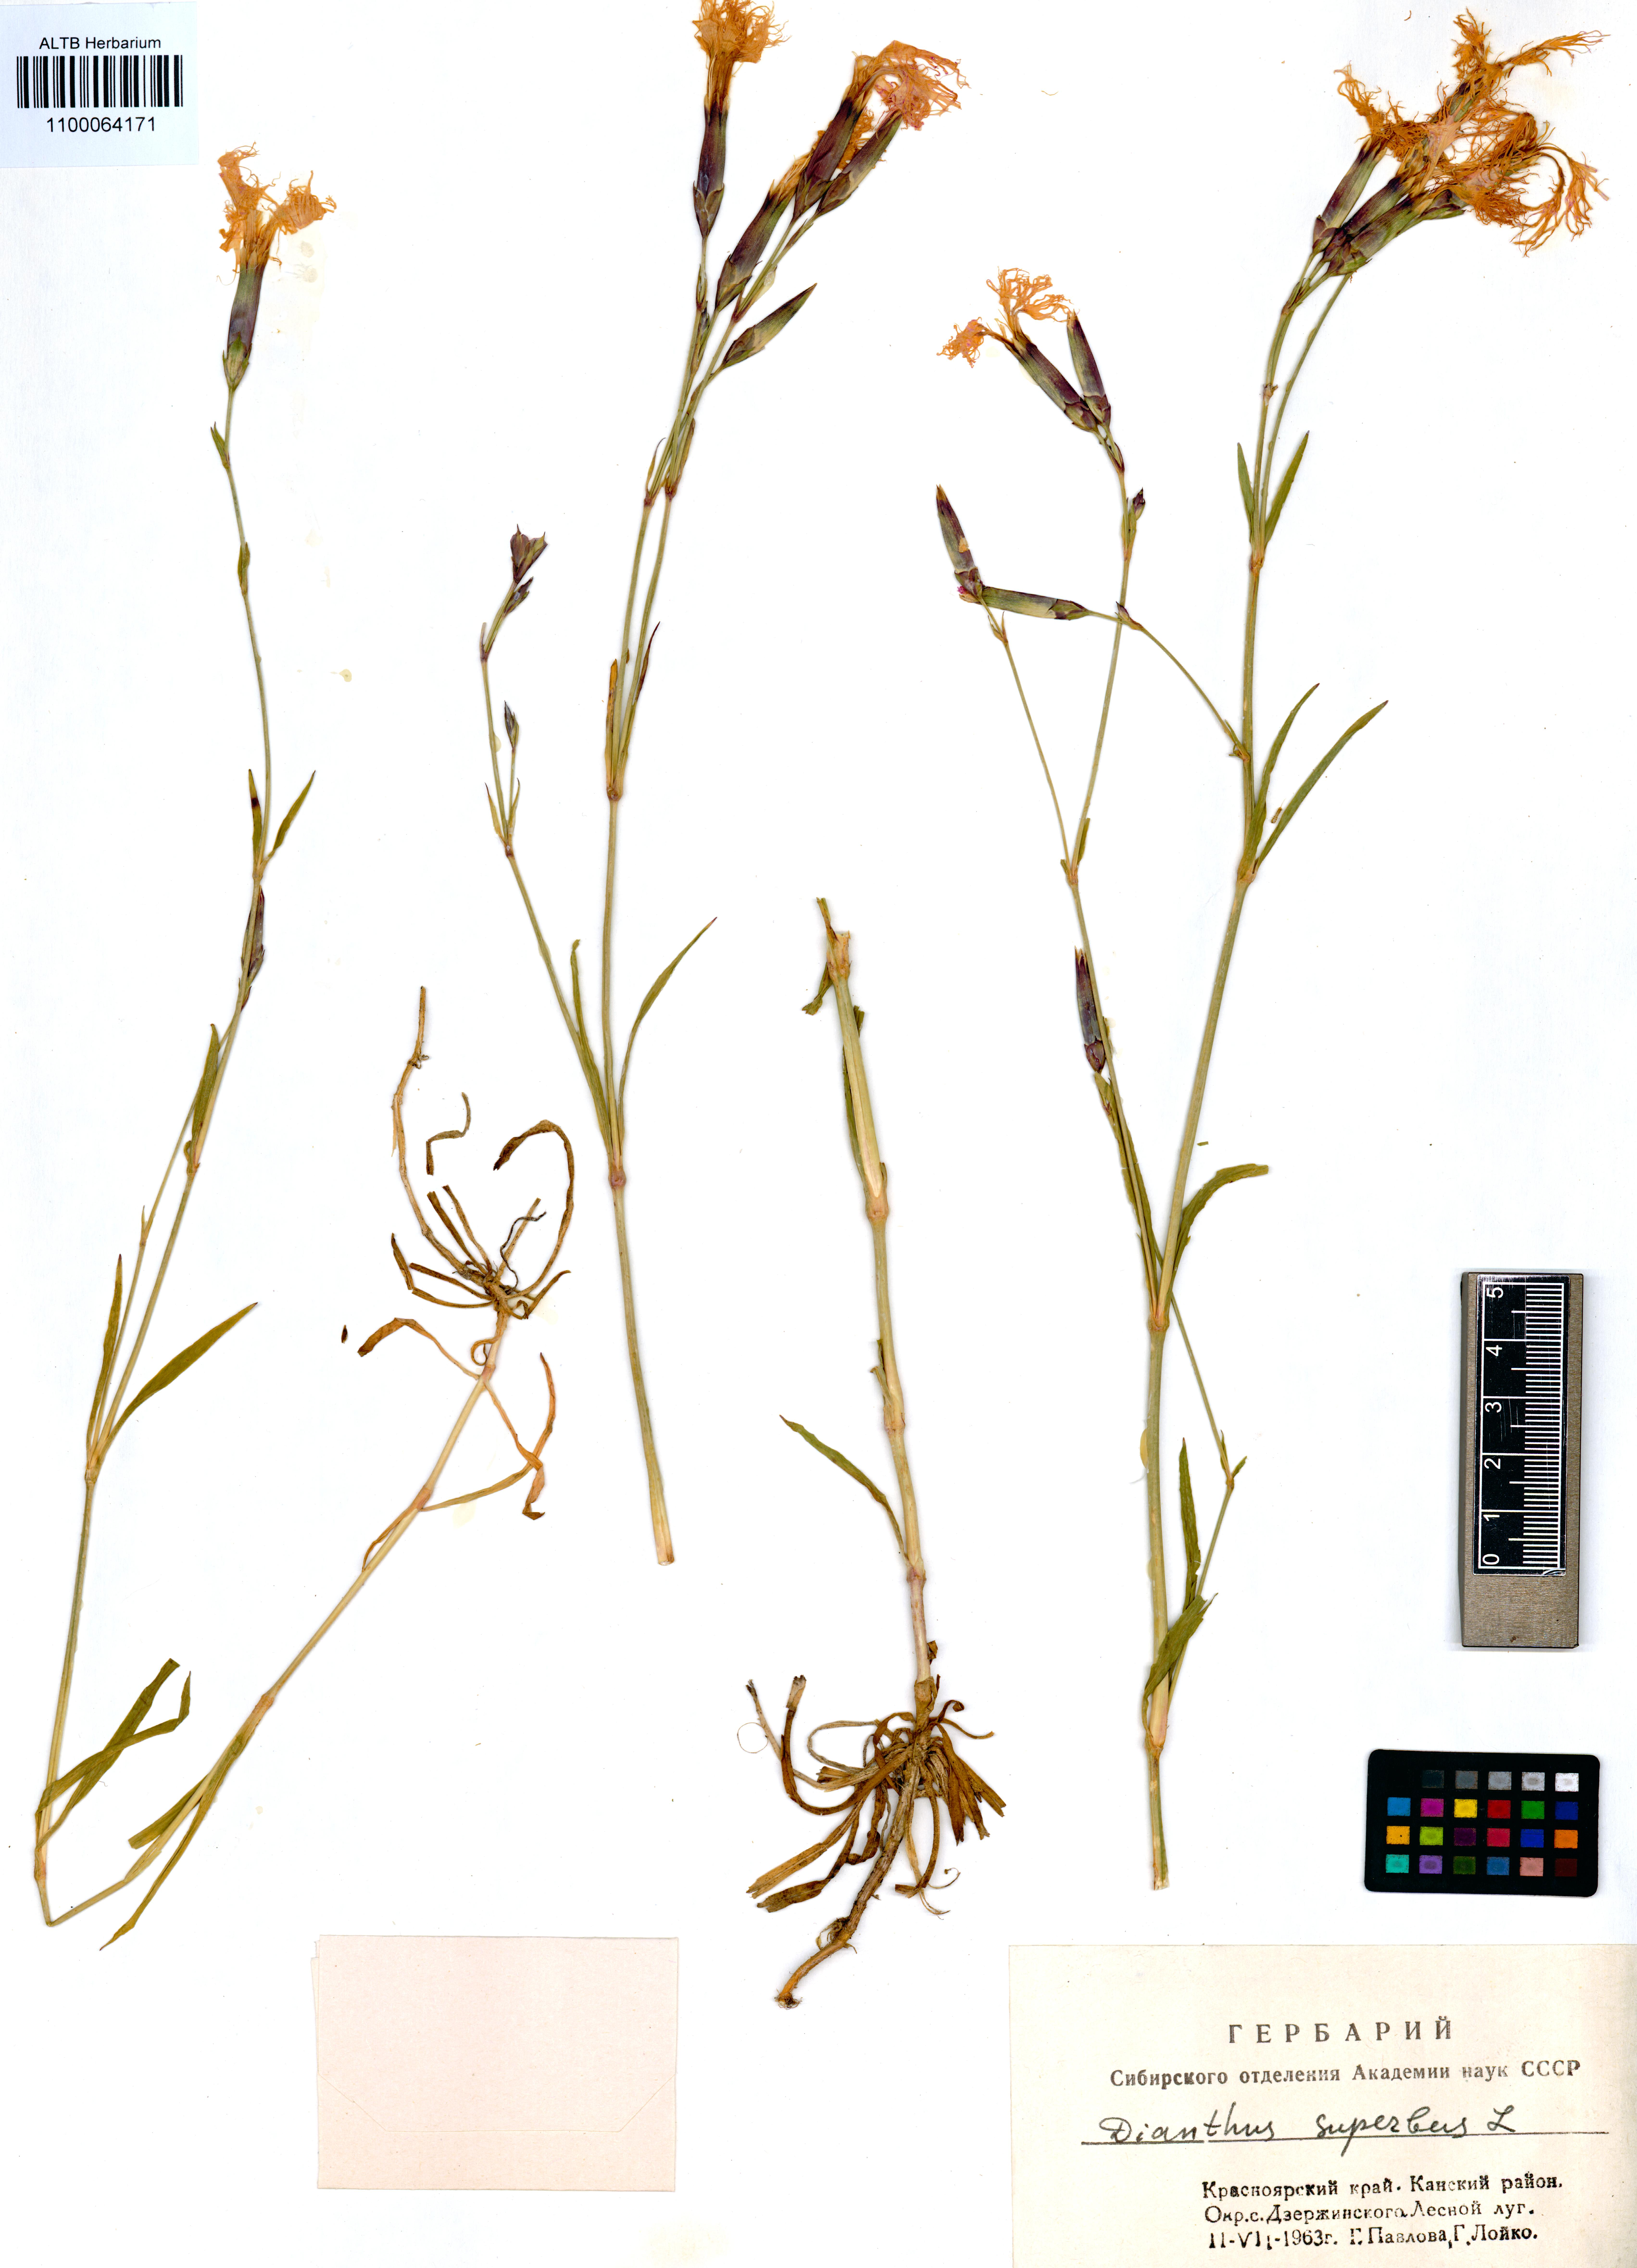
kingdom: Plantae
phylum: Tracheophyta
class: Magnoliopsida
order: Caryophyllales
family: Caryophyllaceae
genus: Dianthus
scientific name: Dianthus superbus
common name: Fringed pink
